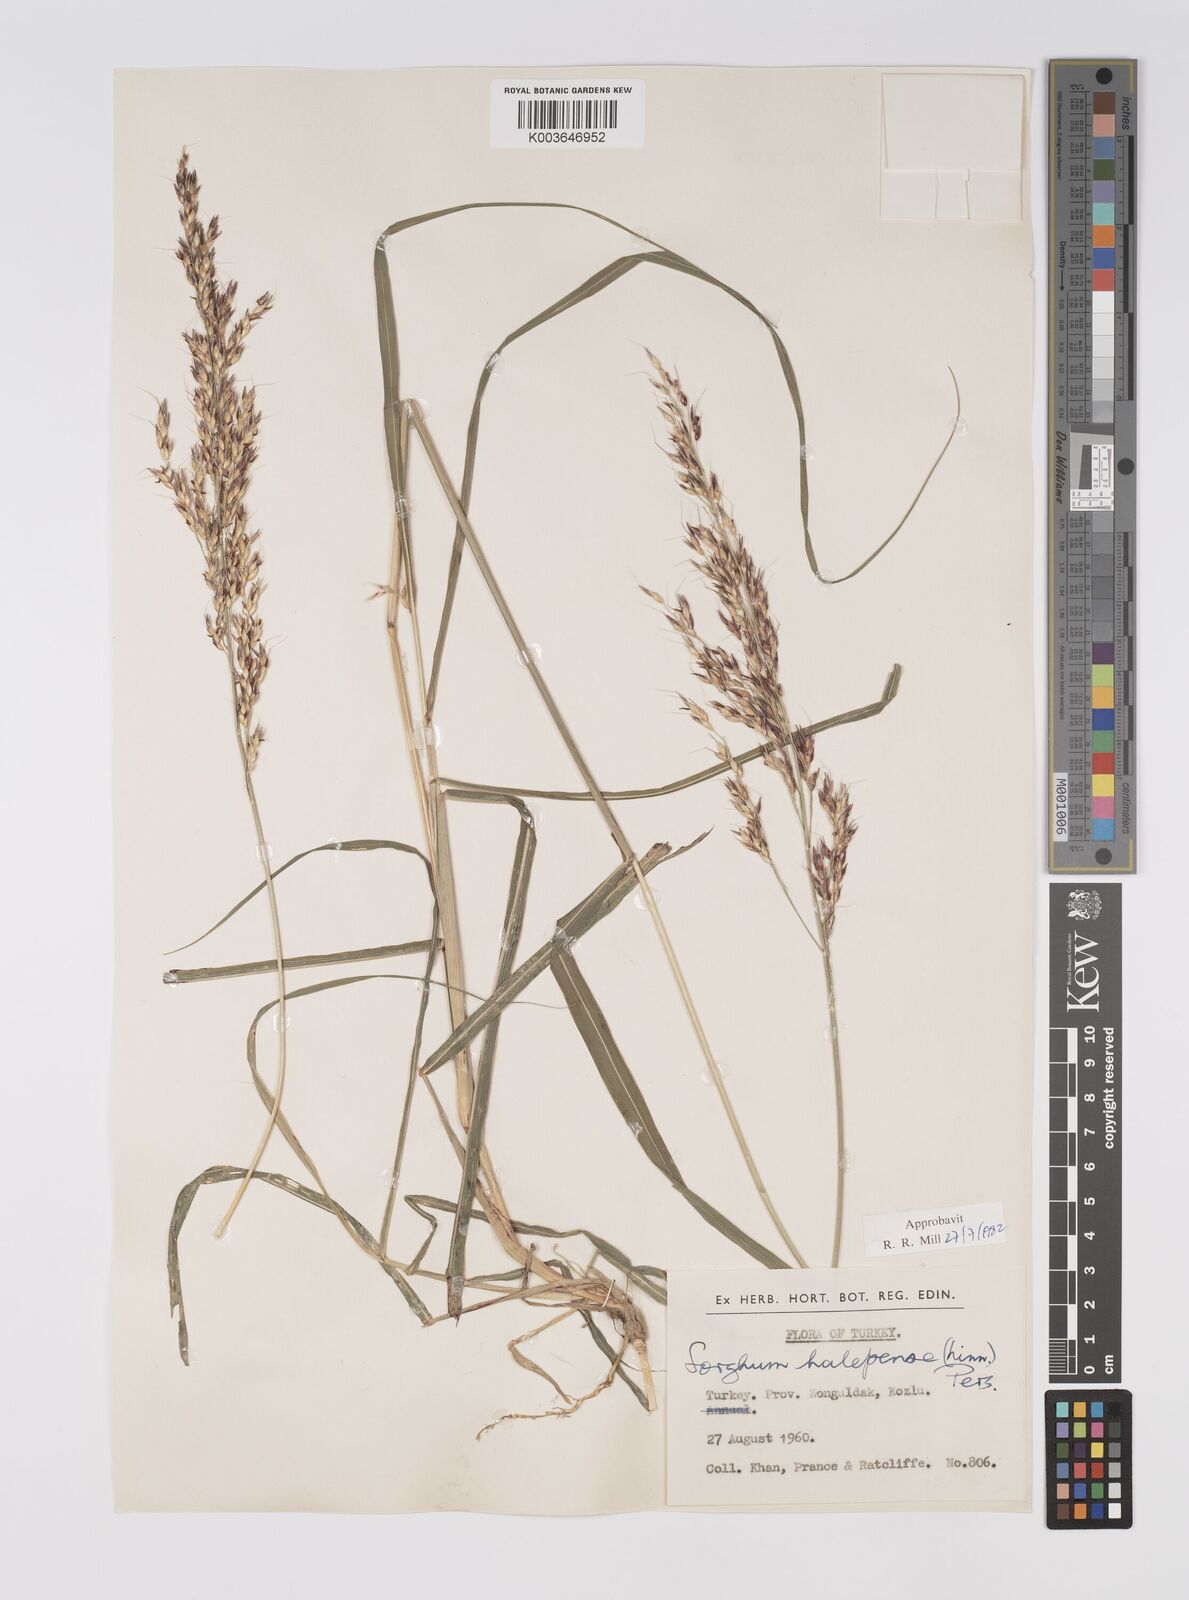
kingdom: Plantae
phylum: Tracheophyta
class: Liliopsida
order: Poales
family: Poaceae
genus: Sorghum
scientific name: Sorghum halepense
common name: Johnson-grass
